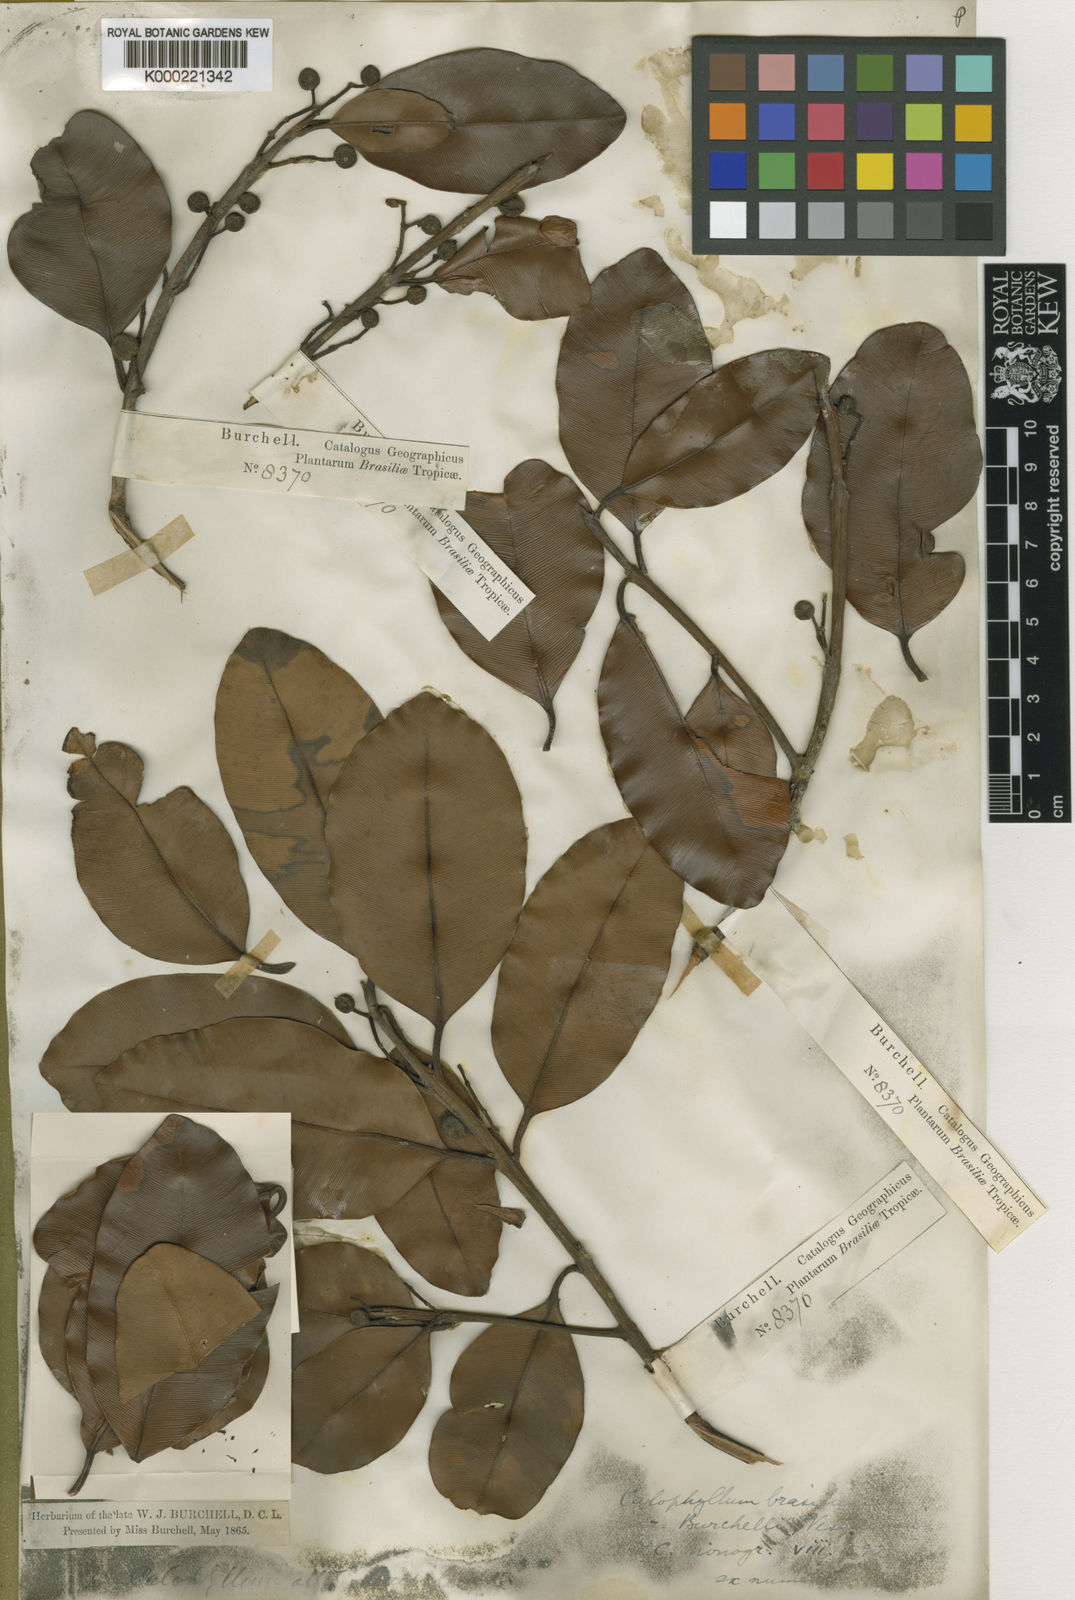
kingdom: Plantae
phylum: Tracheophyta
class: Magnoliopsida
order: Malpighiales
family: Calophyllaceae
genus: Calophyllum
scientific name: Calophyllum brasiliense
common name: Santa maria
